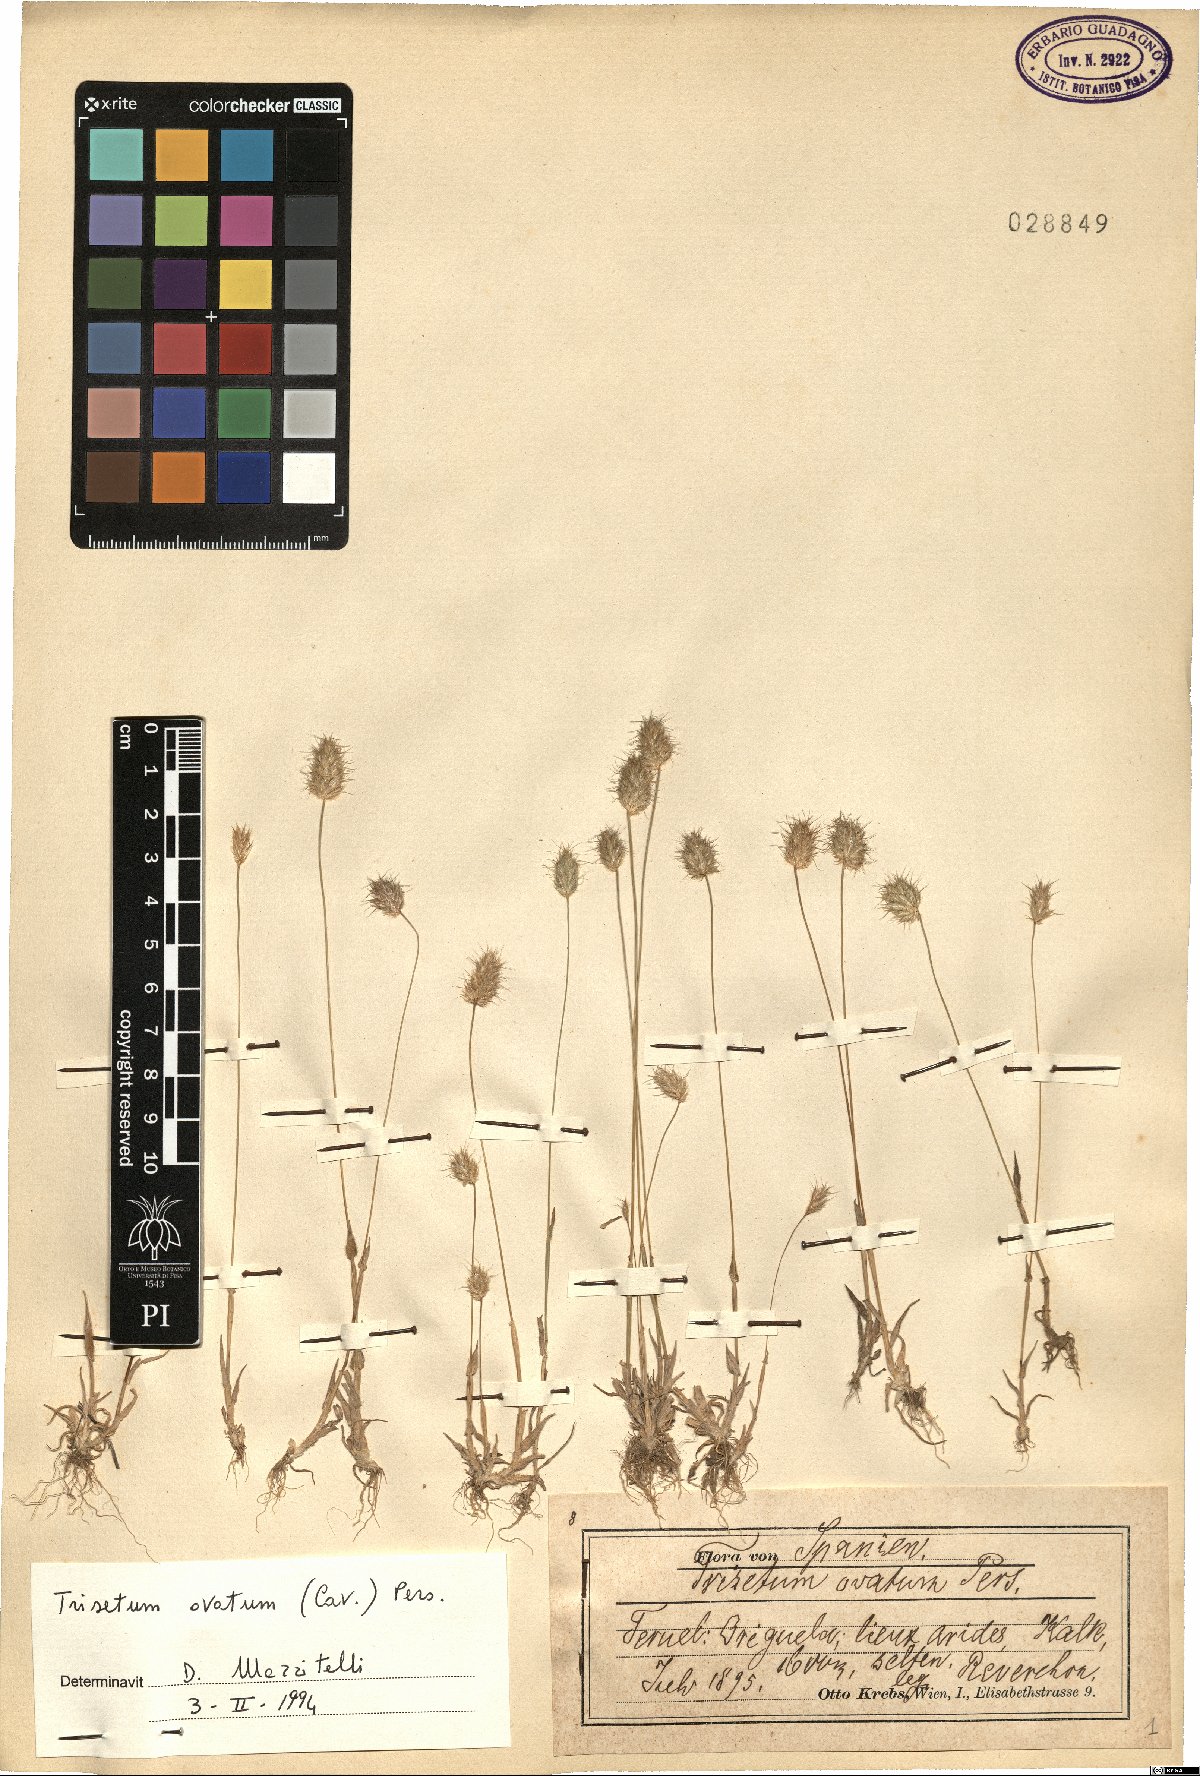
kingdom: Plantae
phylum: Tracheophyta
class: Liliopsida
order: Poales
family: Poaceae
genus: Trisetaria
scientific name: Trisetaria ovata
